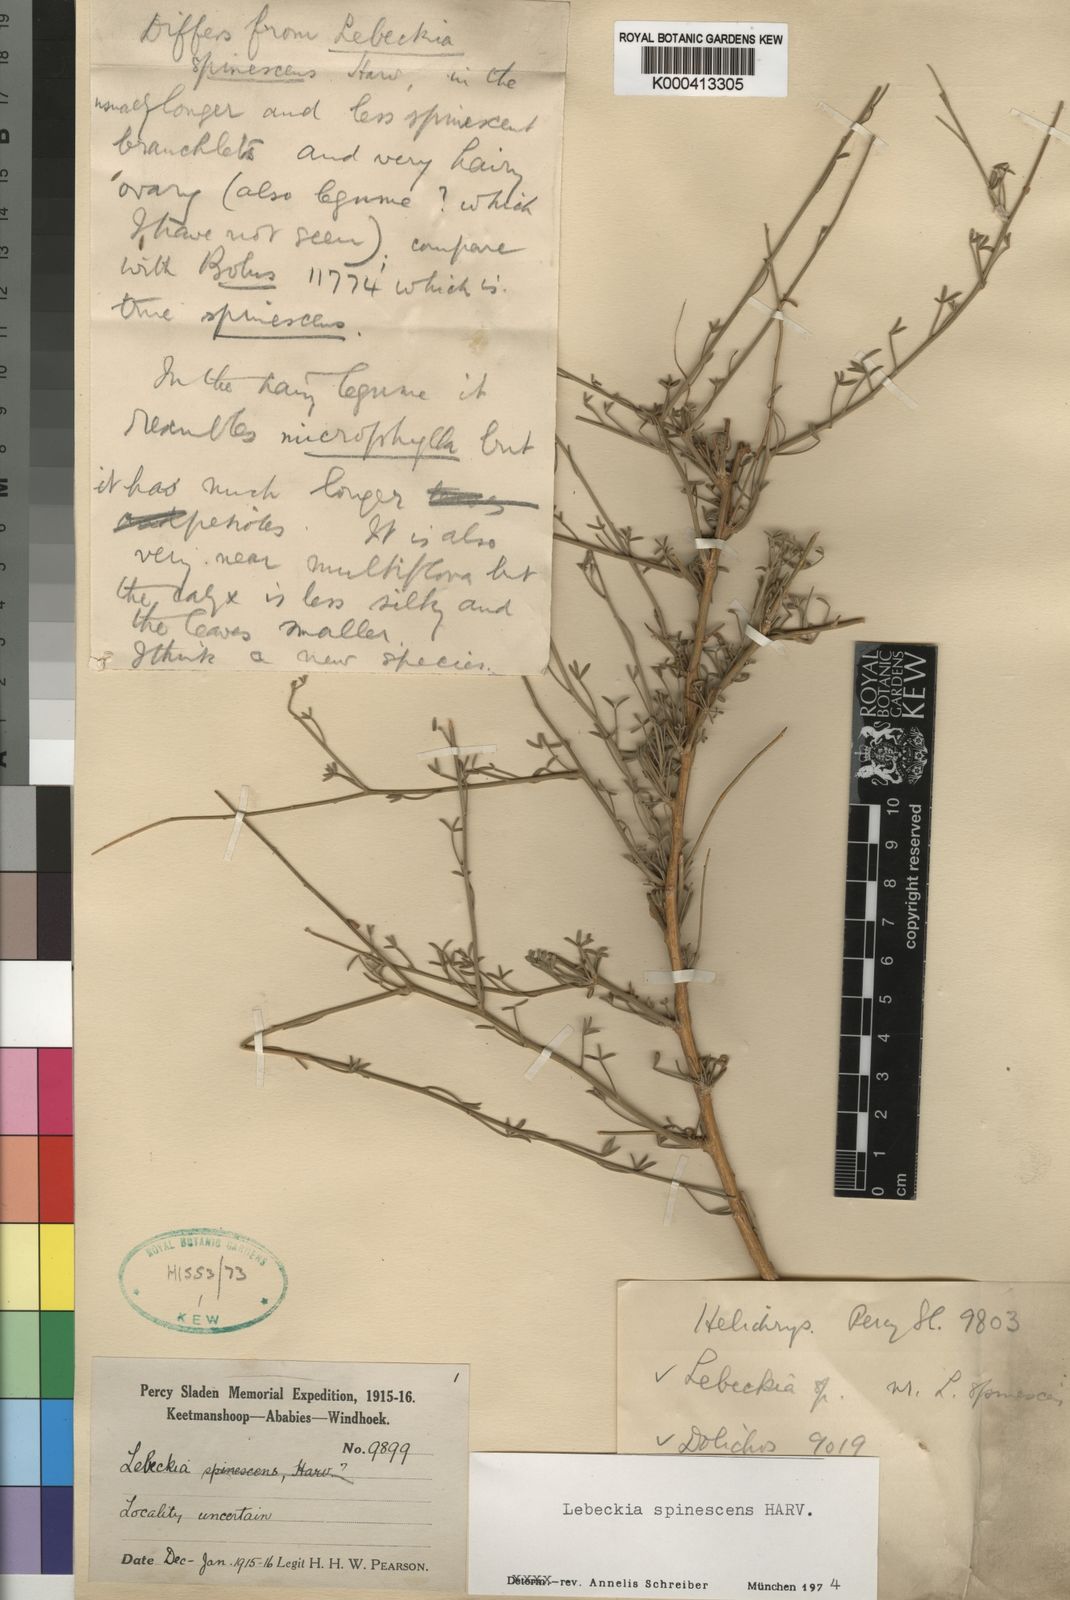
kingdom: Plantae
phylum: Tracheophyta
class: Magnoliopsida
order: Fabales
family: Fabaceae
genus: Calobota
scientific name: Calobota spinescens
